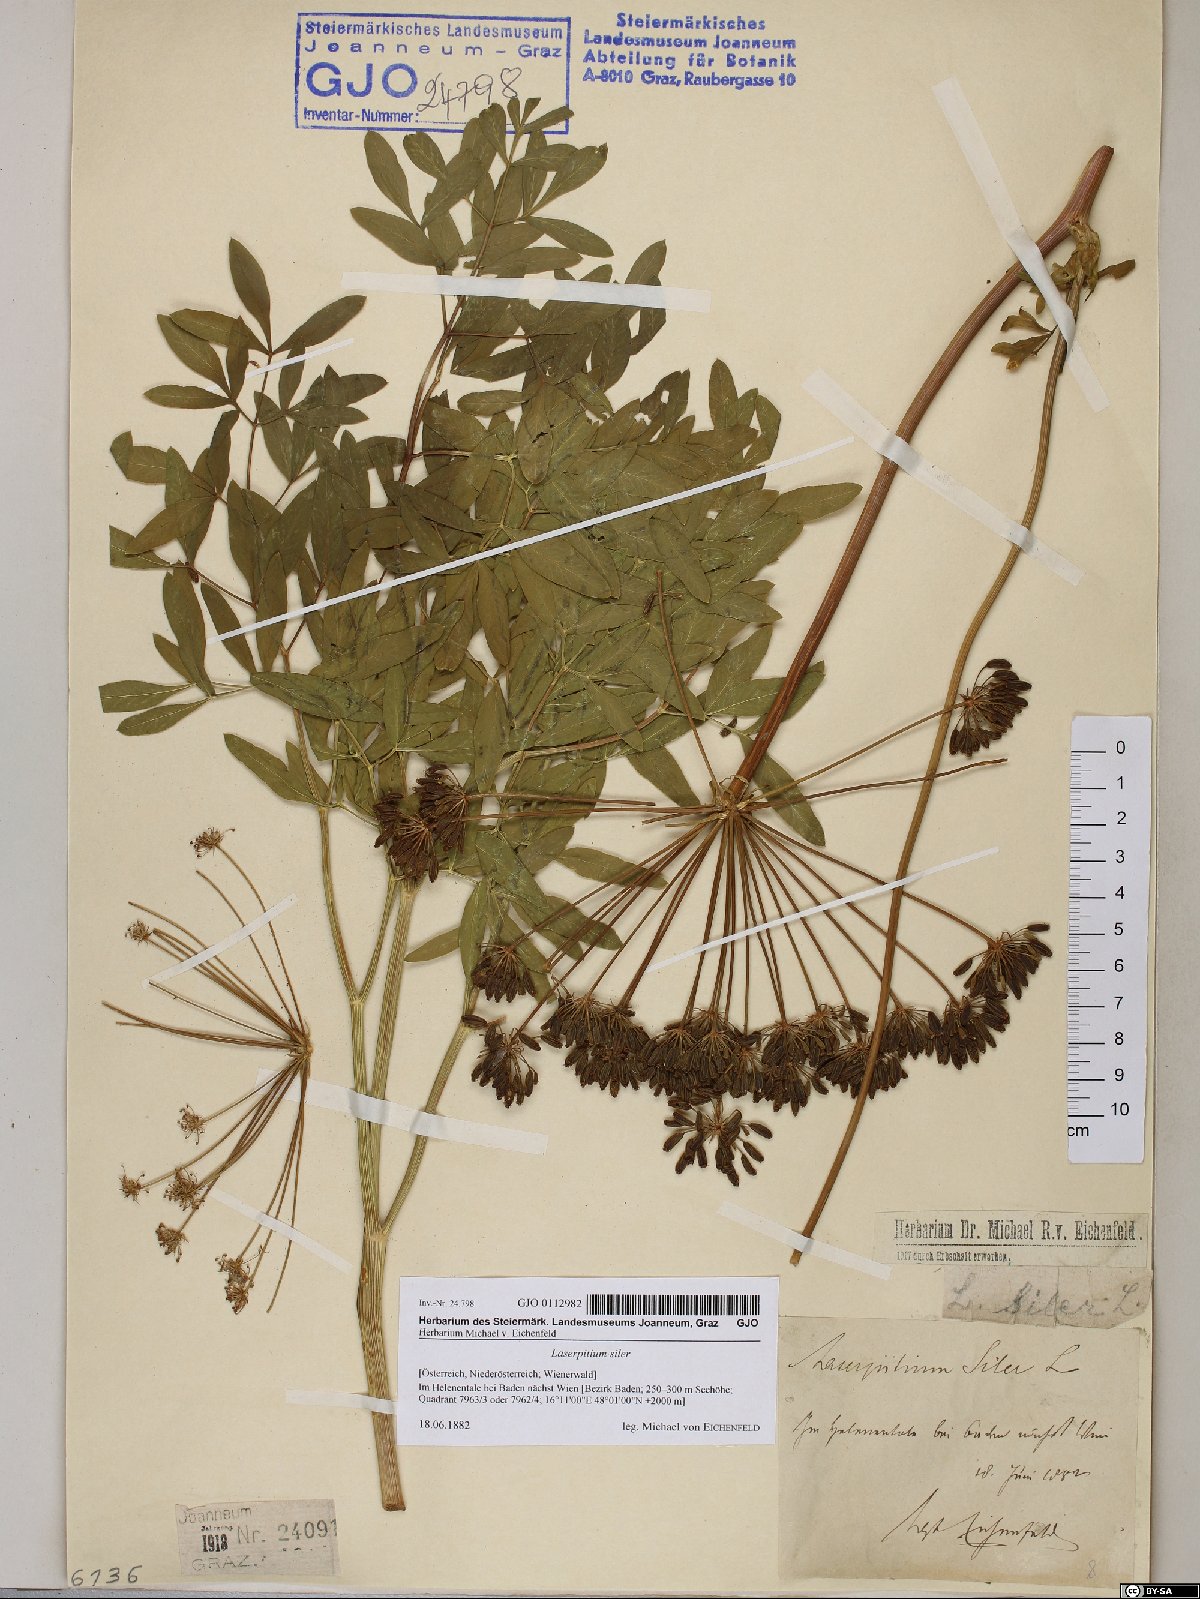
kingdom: Plantae
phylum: Tracheophyta
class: Magnoliopsida
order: Apiales
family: Apiaceae
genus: Siler
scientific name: Siler montanum
